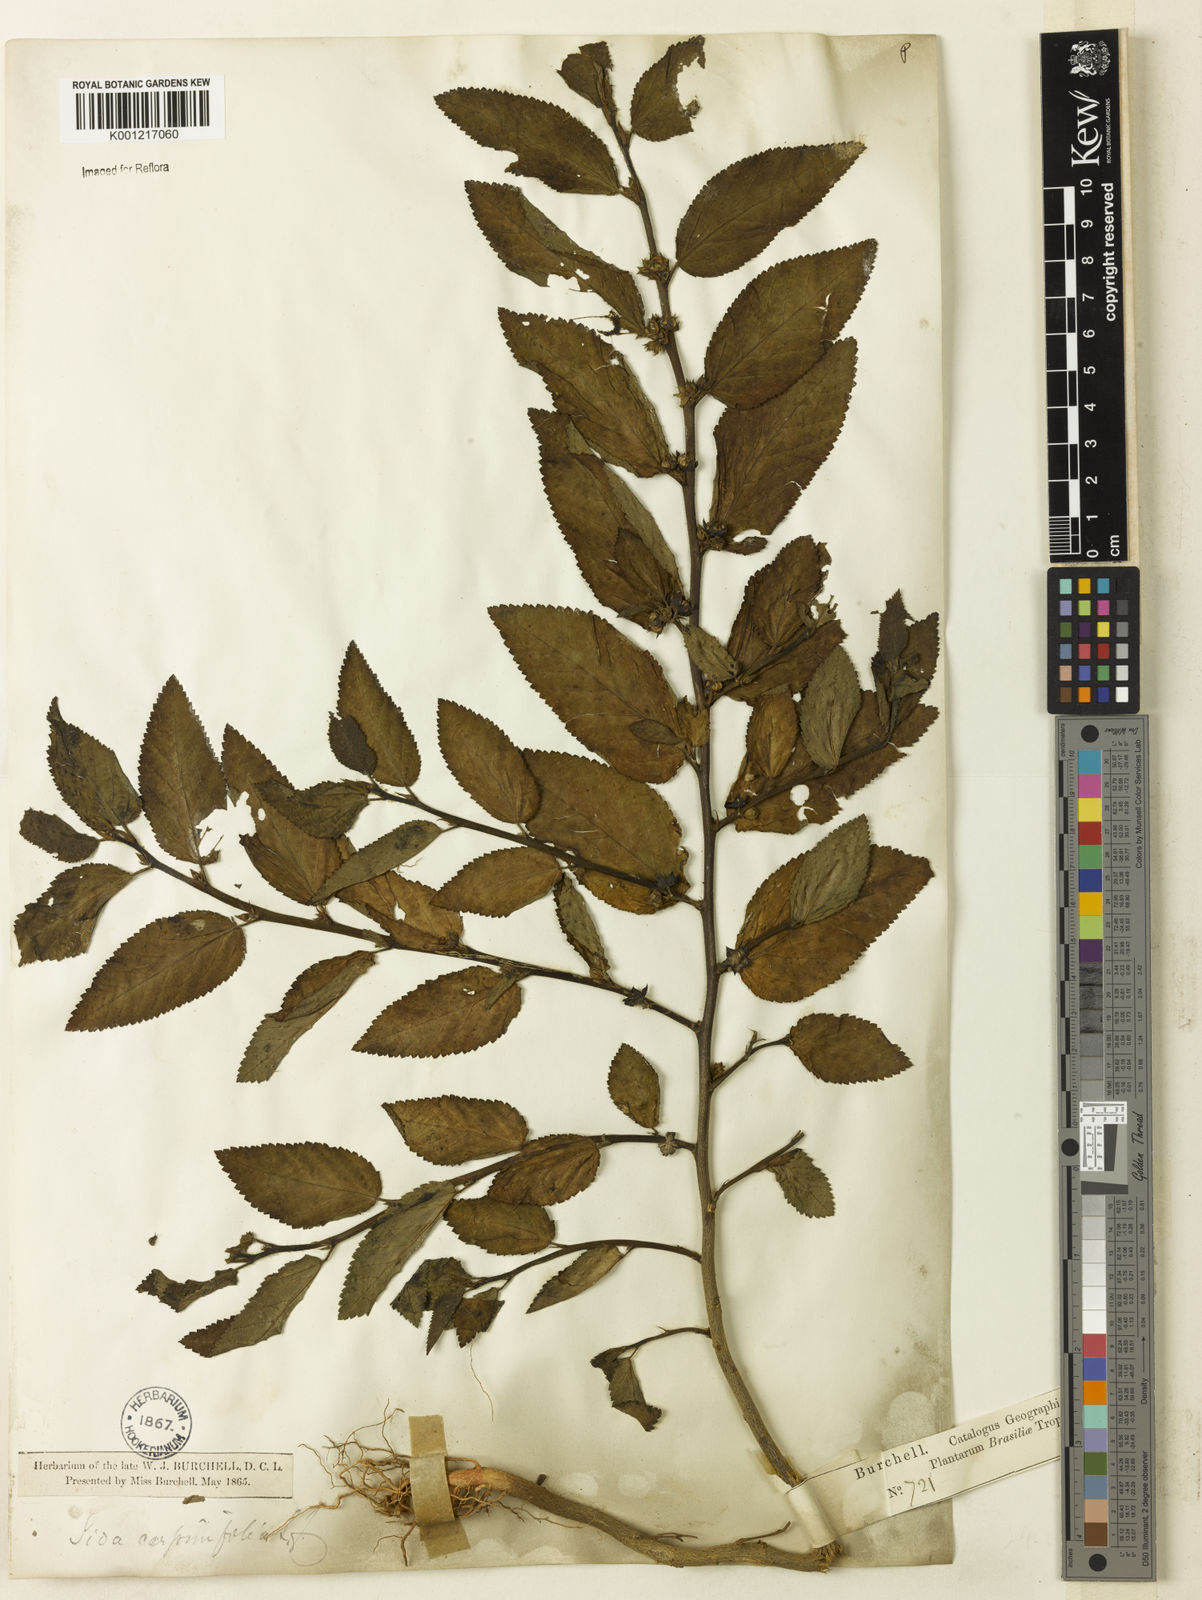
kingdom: Plantae
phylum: Tracheophyta
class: Magnoliopsida
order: Malvales
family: Malvaceae
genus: Sida
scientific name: Sida planicaulis
